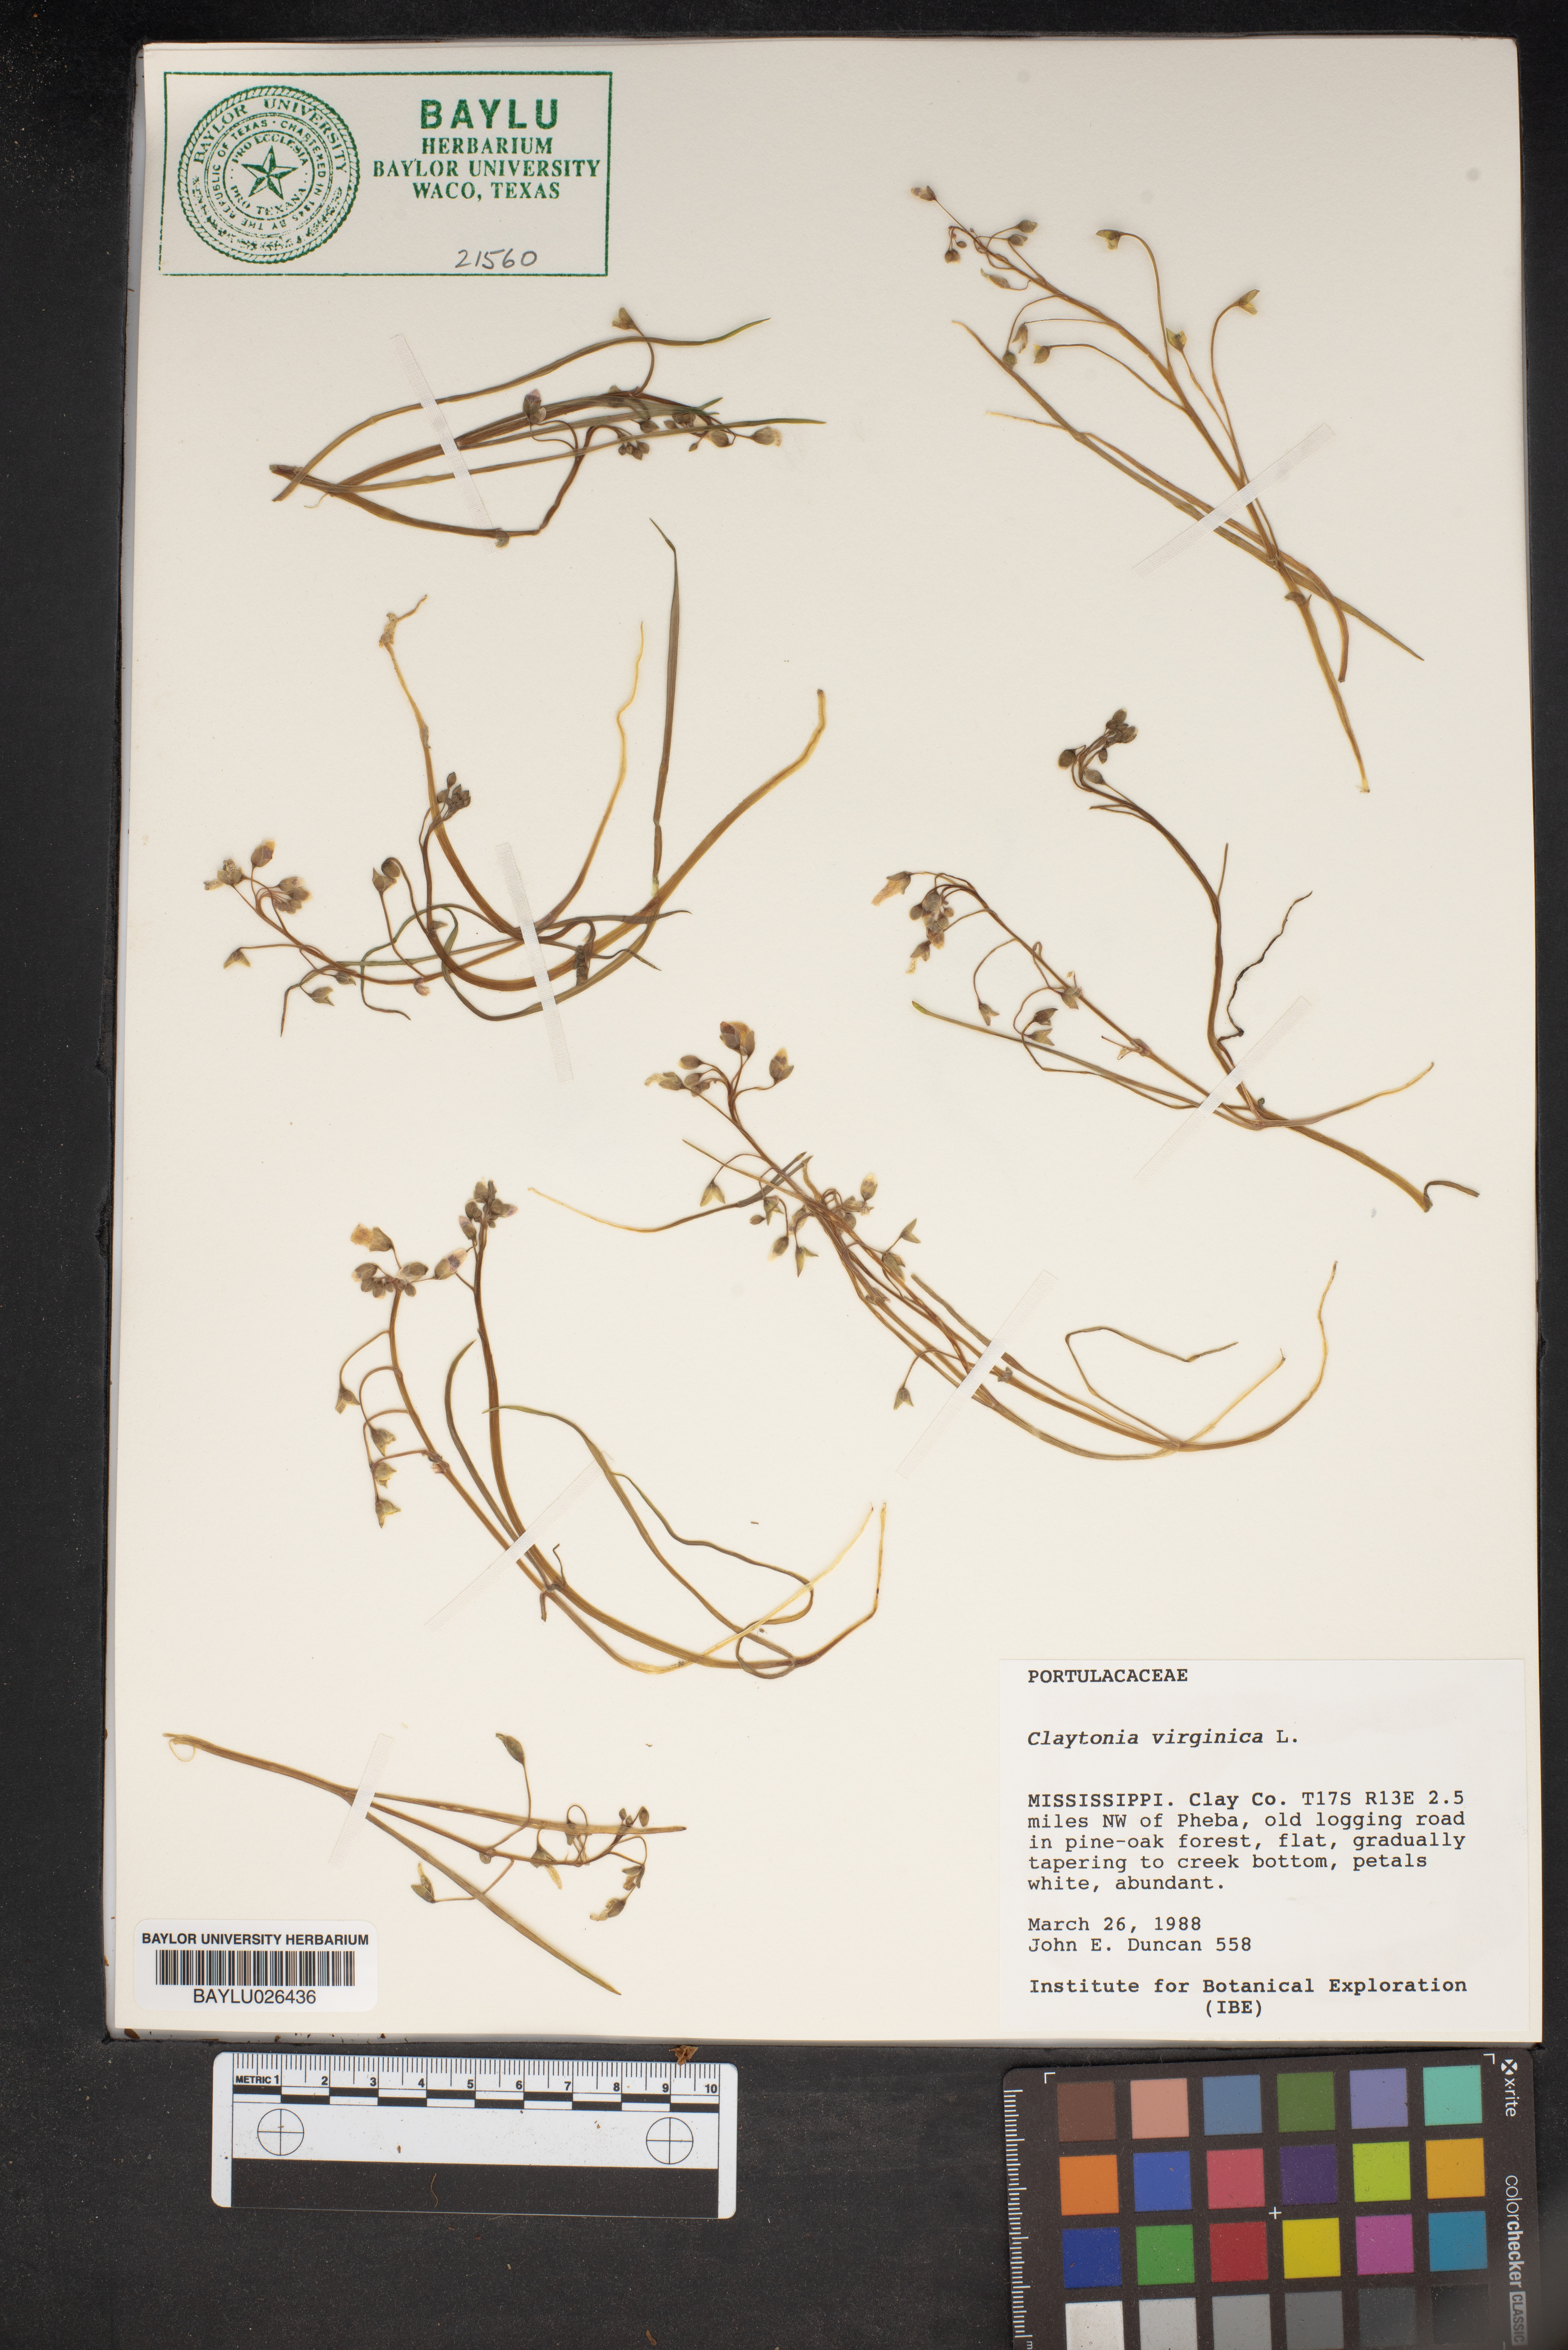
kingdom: Plantae
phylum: Tracheophyta
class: Magnoliopsida
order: Caryophyllales
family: Montiaceae
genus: Claytonia
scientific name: Claytonia virginica
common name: Virginia springbeauty
